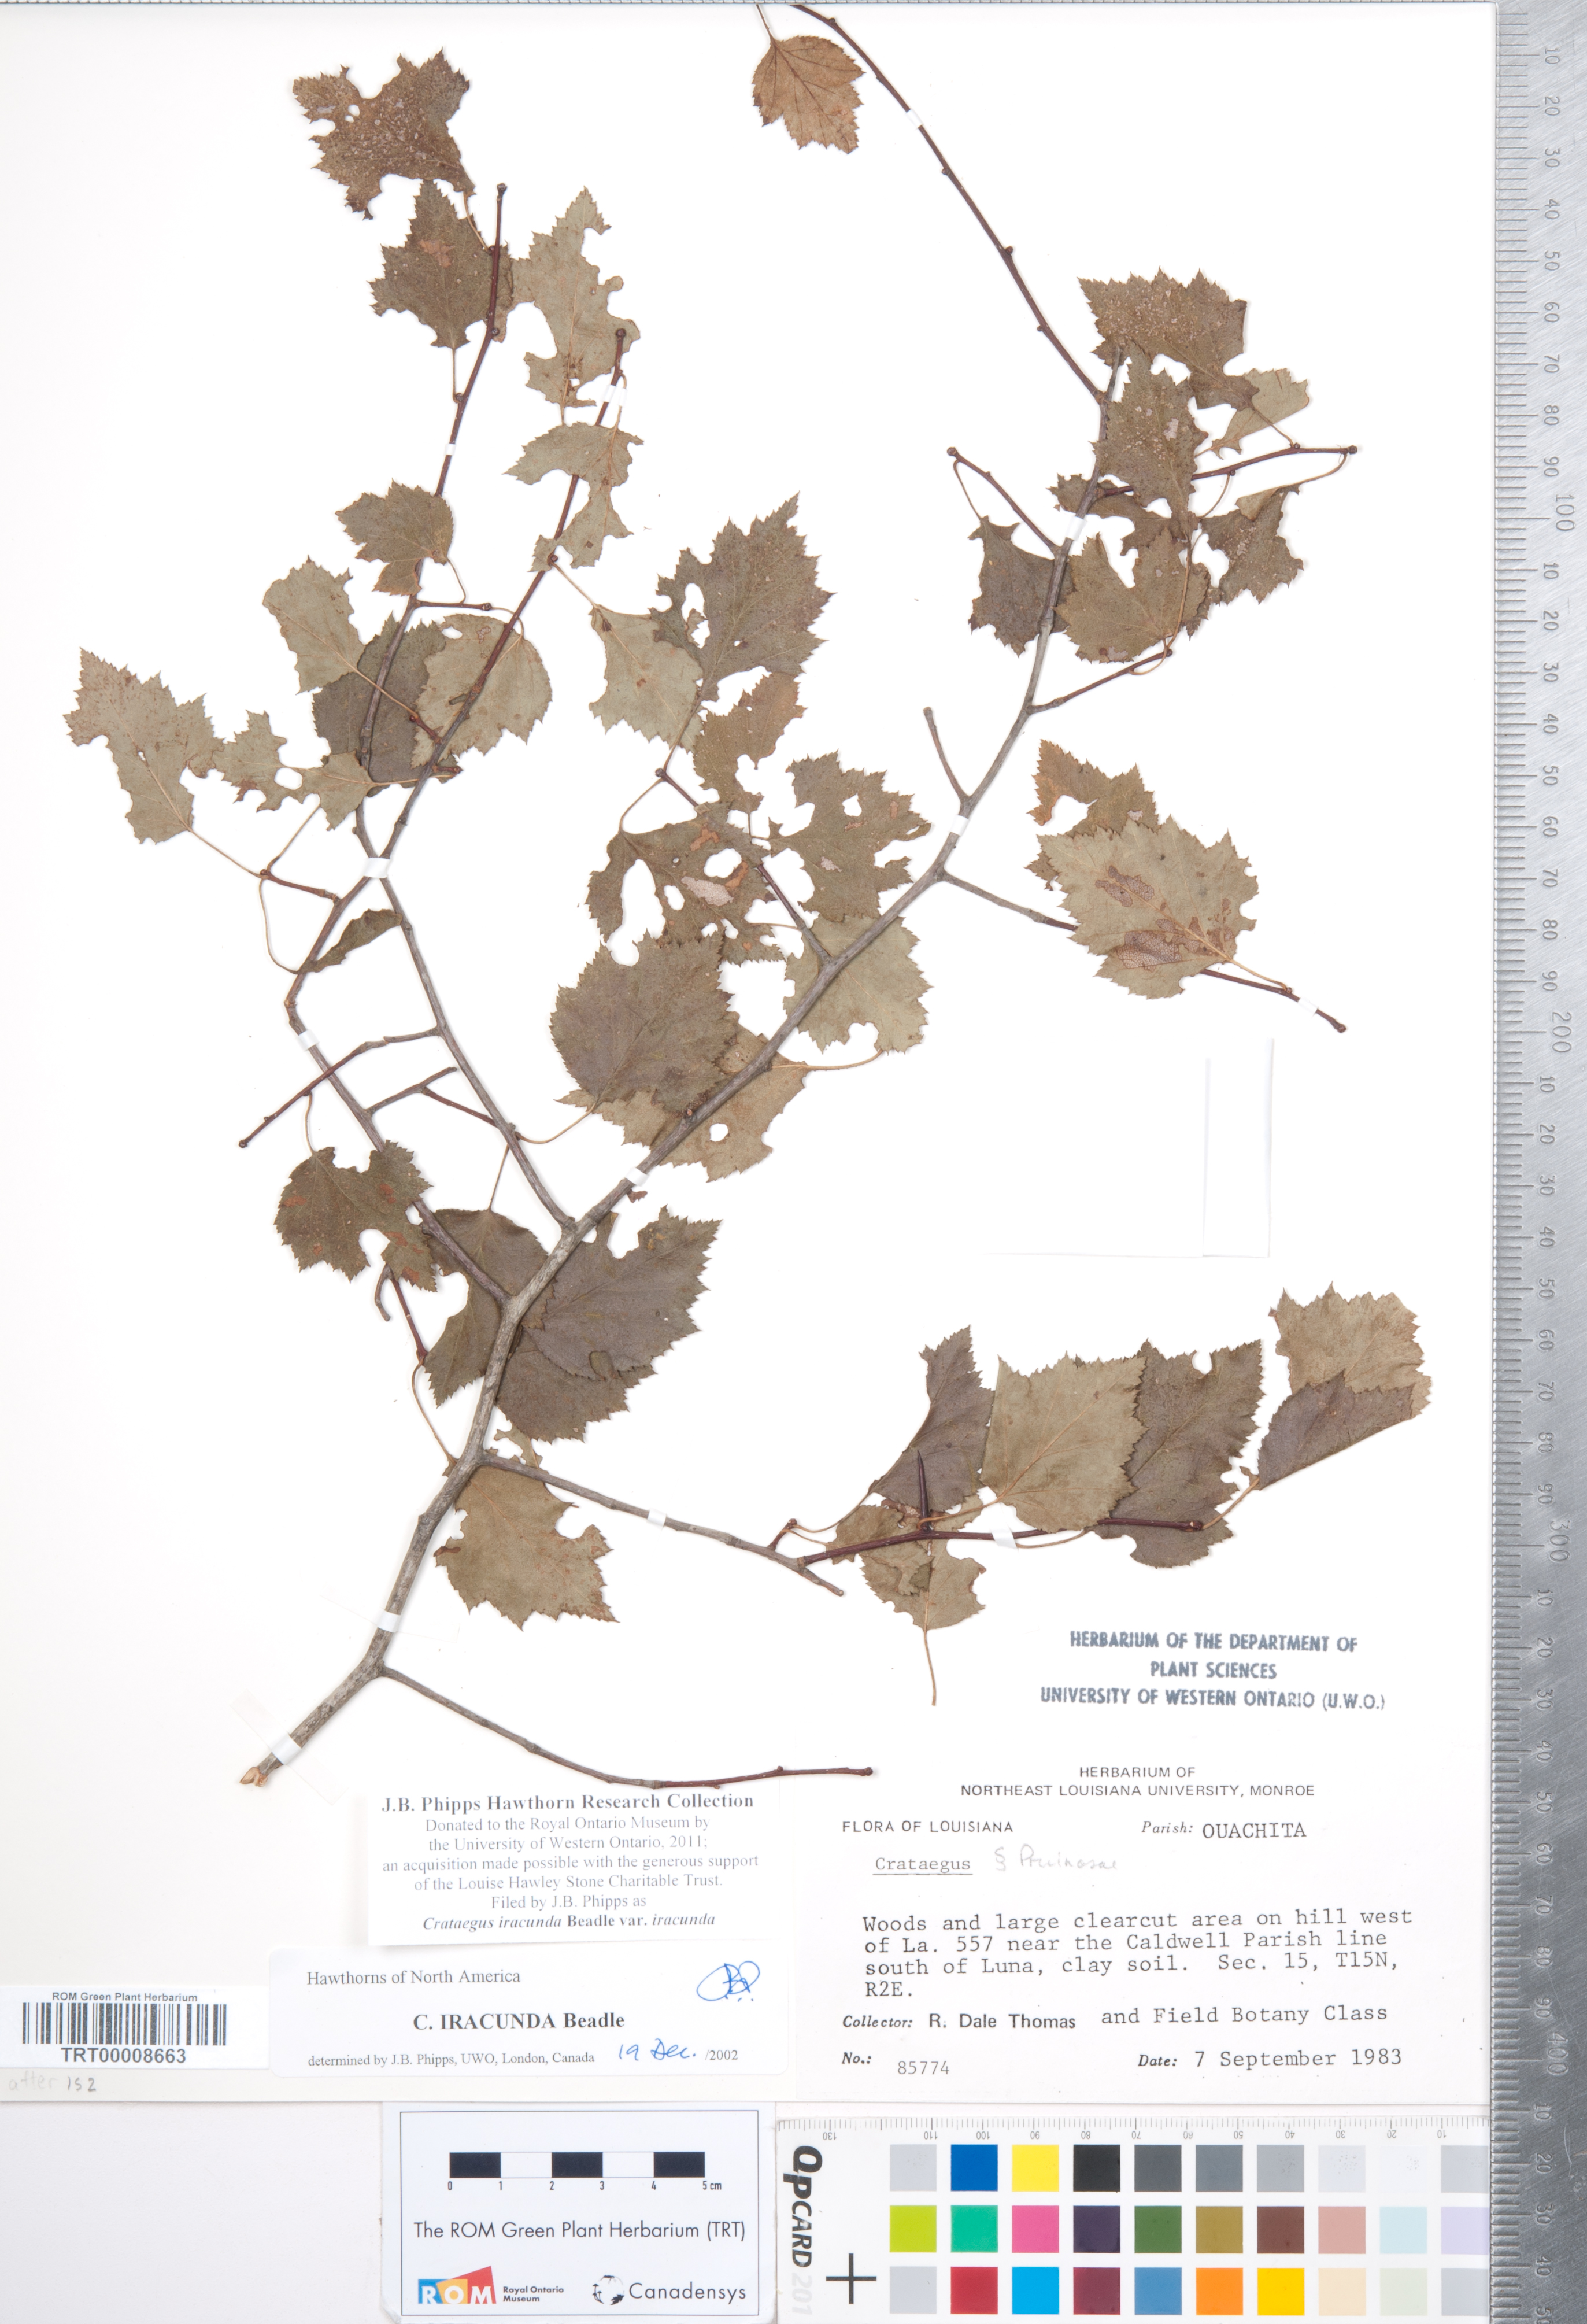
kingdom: Plantae
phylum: Tracheophyta
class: Magnoliopsida
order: Rosales
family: Rosaceae
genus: Crataegus
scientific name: Crataegus iracunda
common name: Stolon-bearing hawthorn
